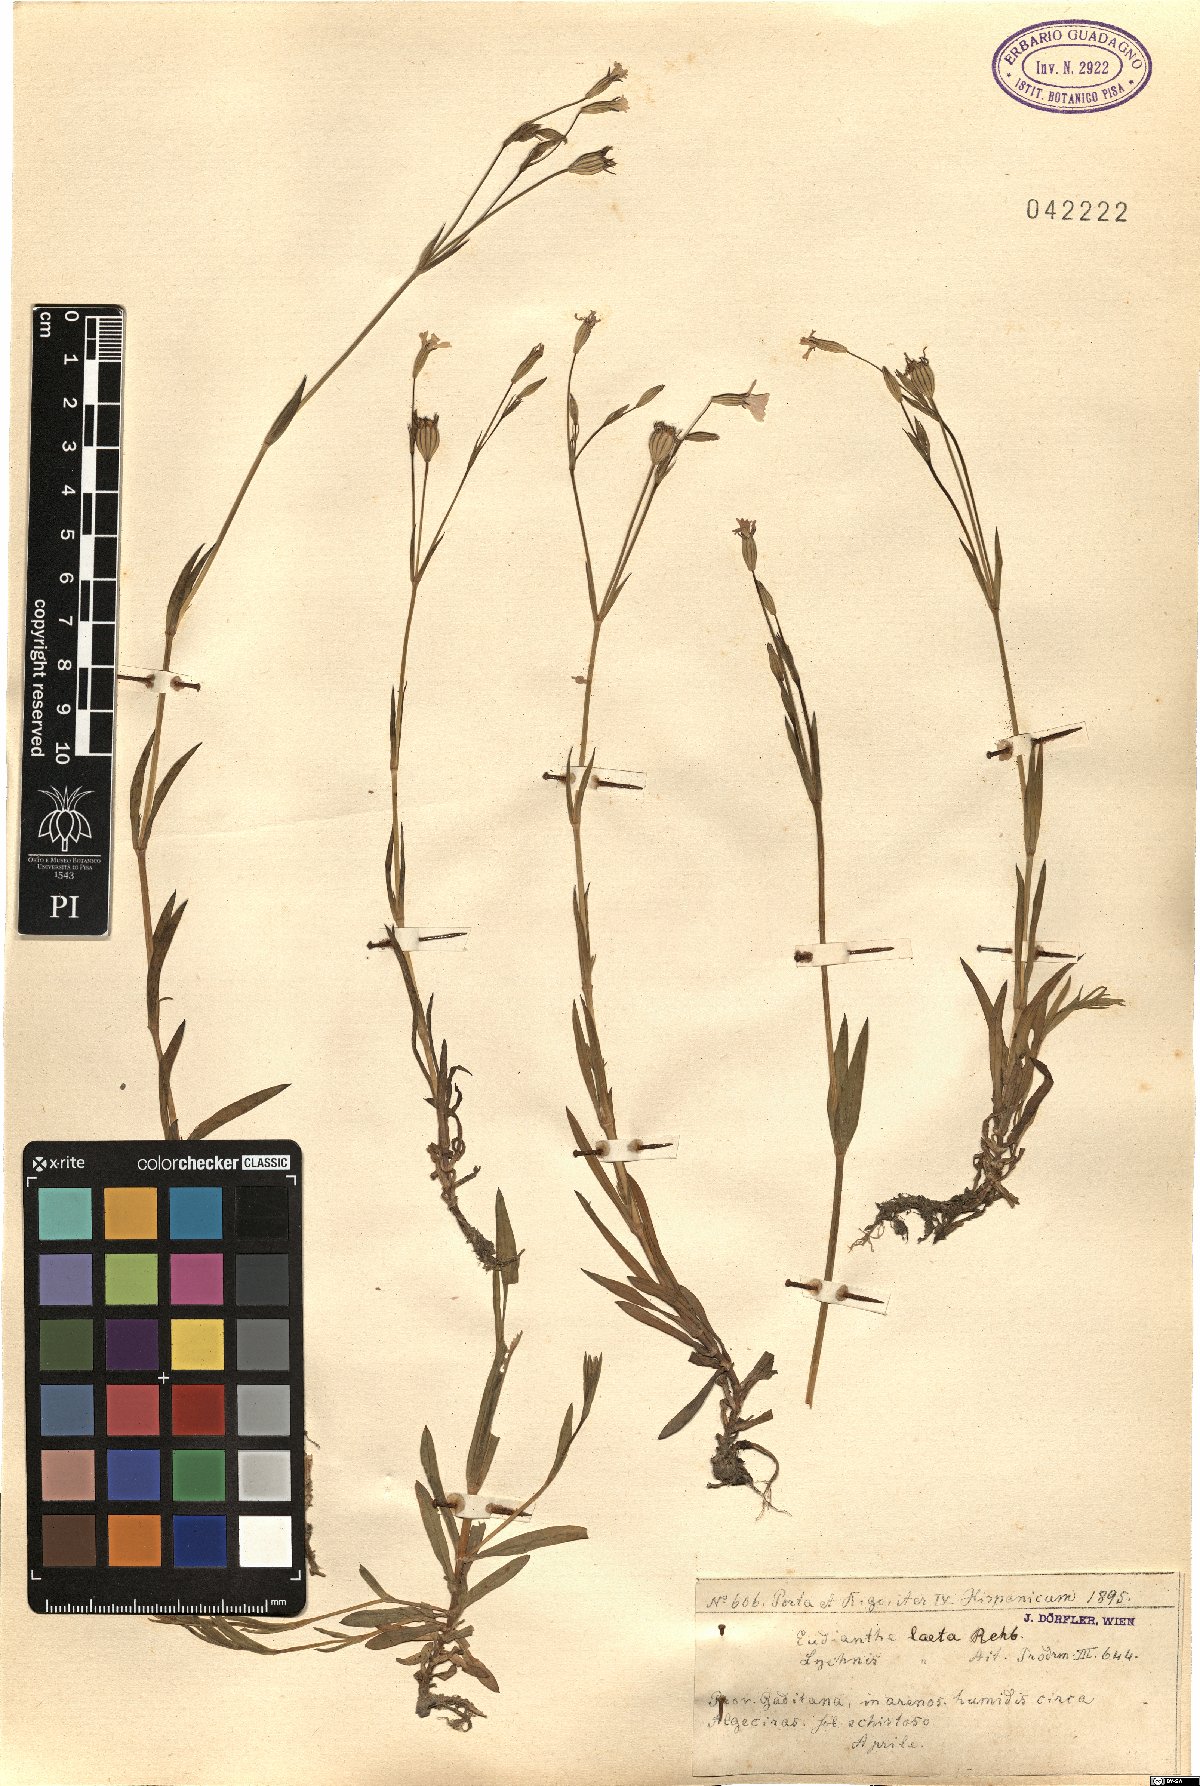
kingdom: Plantae
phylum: Tracheophyta
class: Magnoliopsida
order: Caryophyllales
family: Caryophyllaceae
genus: Eudianthe
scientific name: Eudianthe laeta
